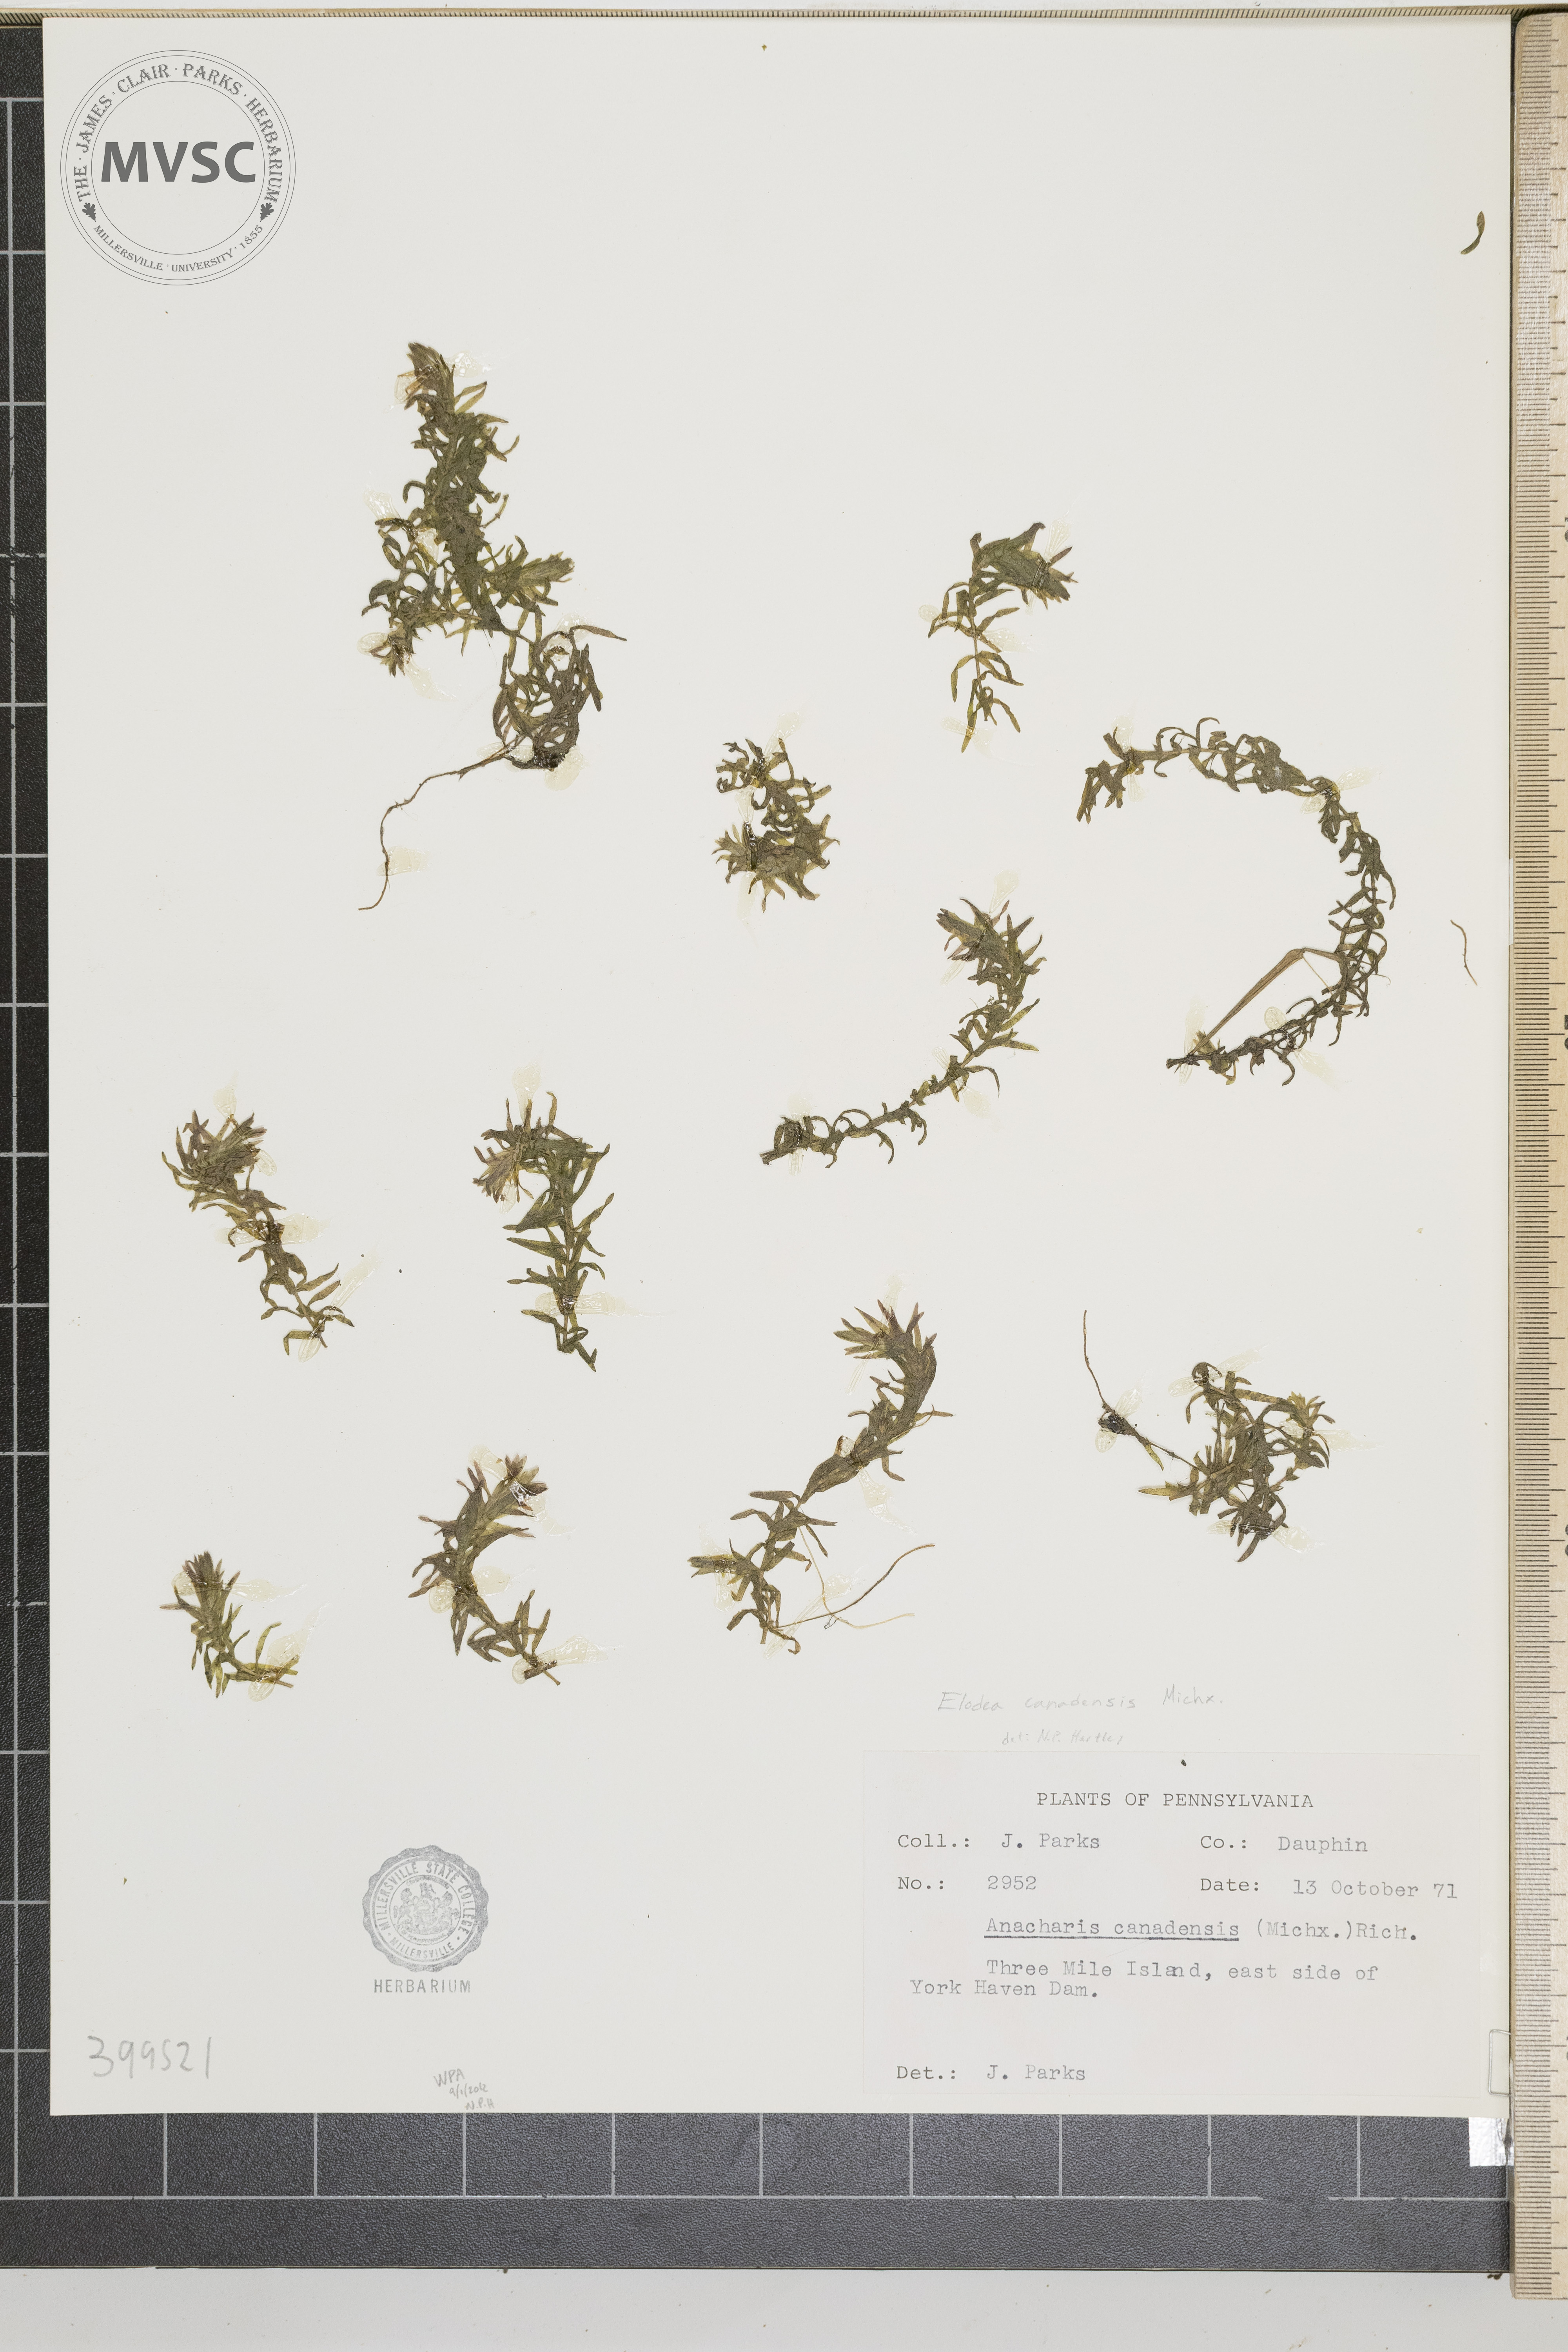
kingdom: Plantae
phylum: Tracheophyta
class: Liliopsida
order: Alismatales
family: Hydrocharitaceae
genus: Elodea
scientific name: Elodea canadensis
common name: waterweed
